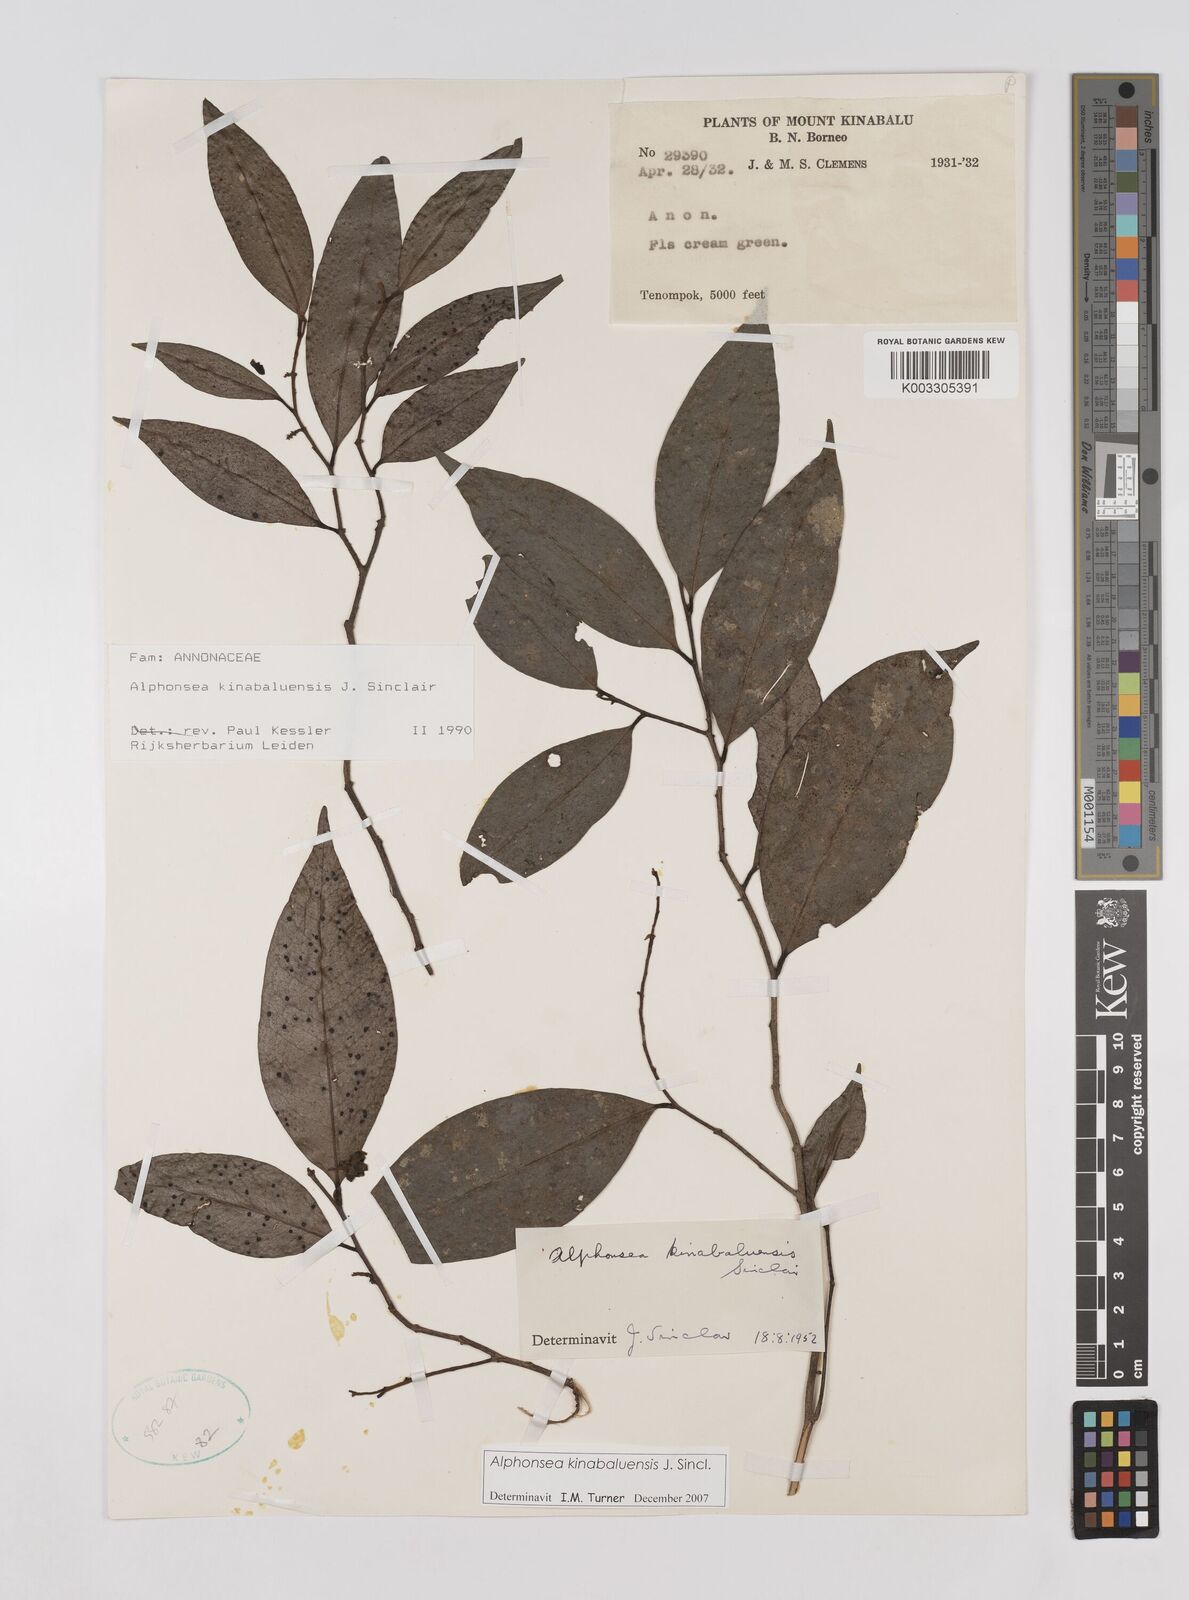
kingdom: Plantae
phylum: Tracheophyta
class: Magnoliopsida
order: Magnoliales
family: Annonaceae
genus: Alphonsea
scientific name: Alphonsea kinabaluensis
